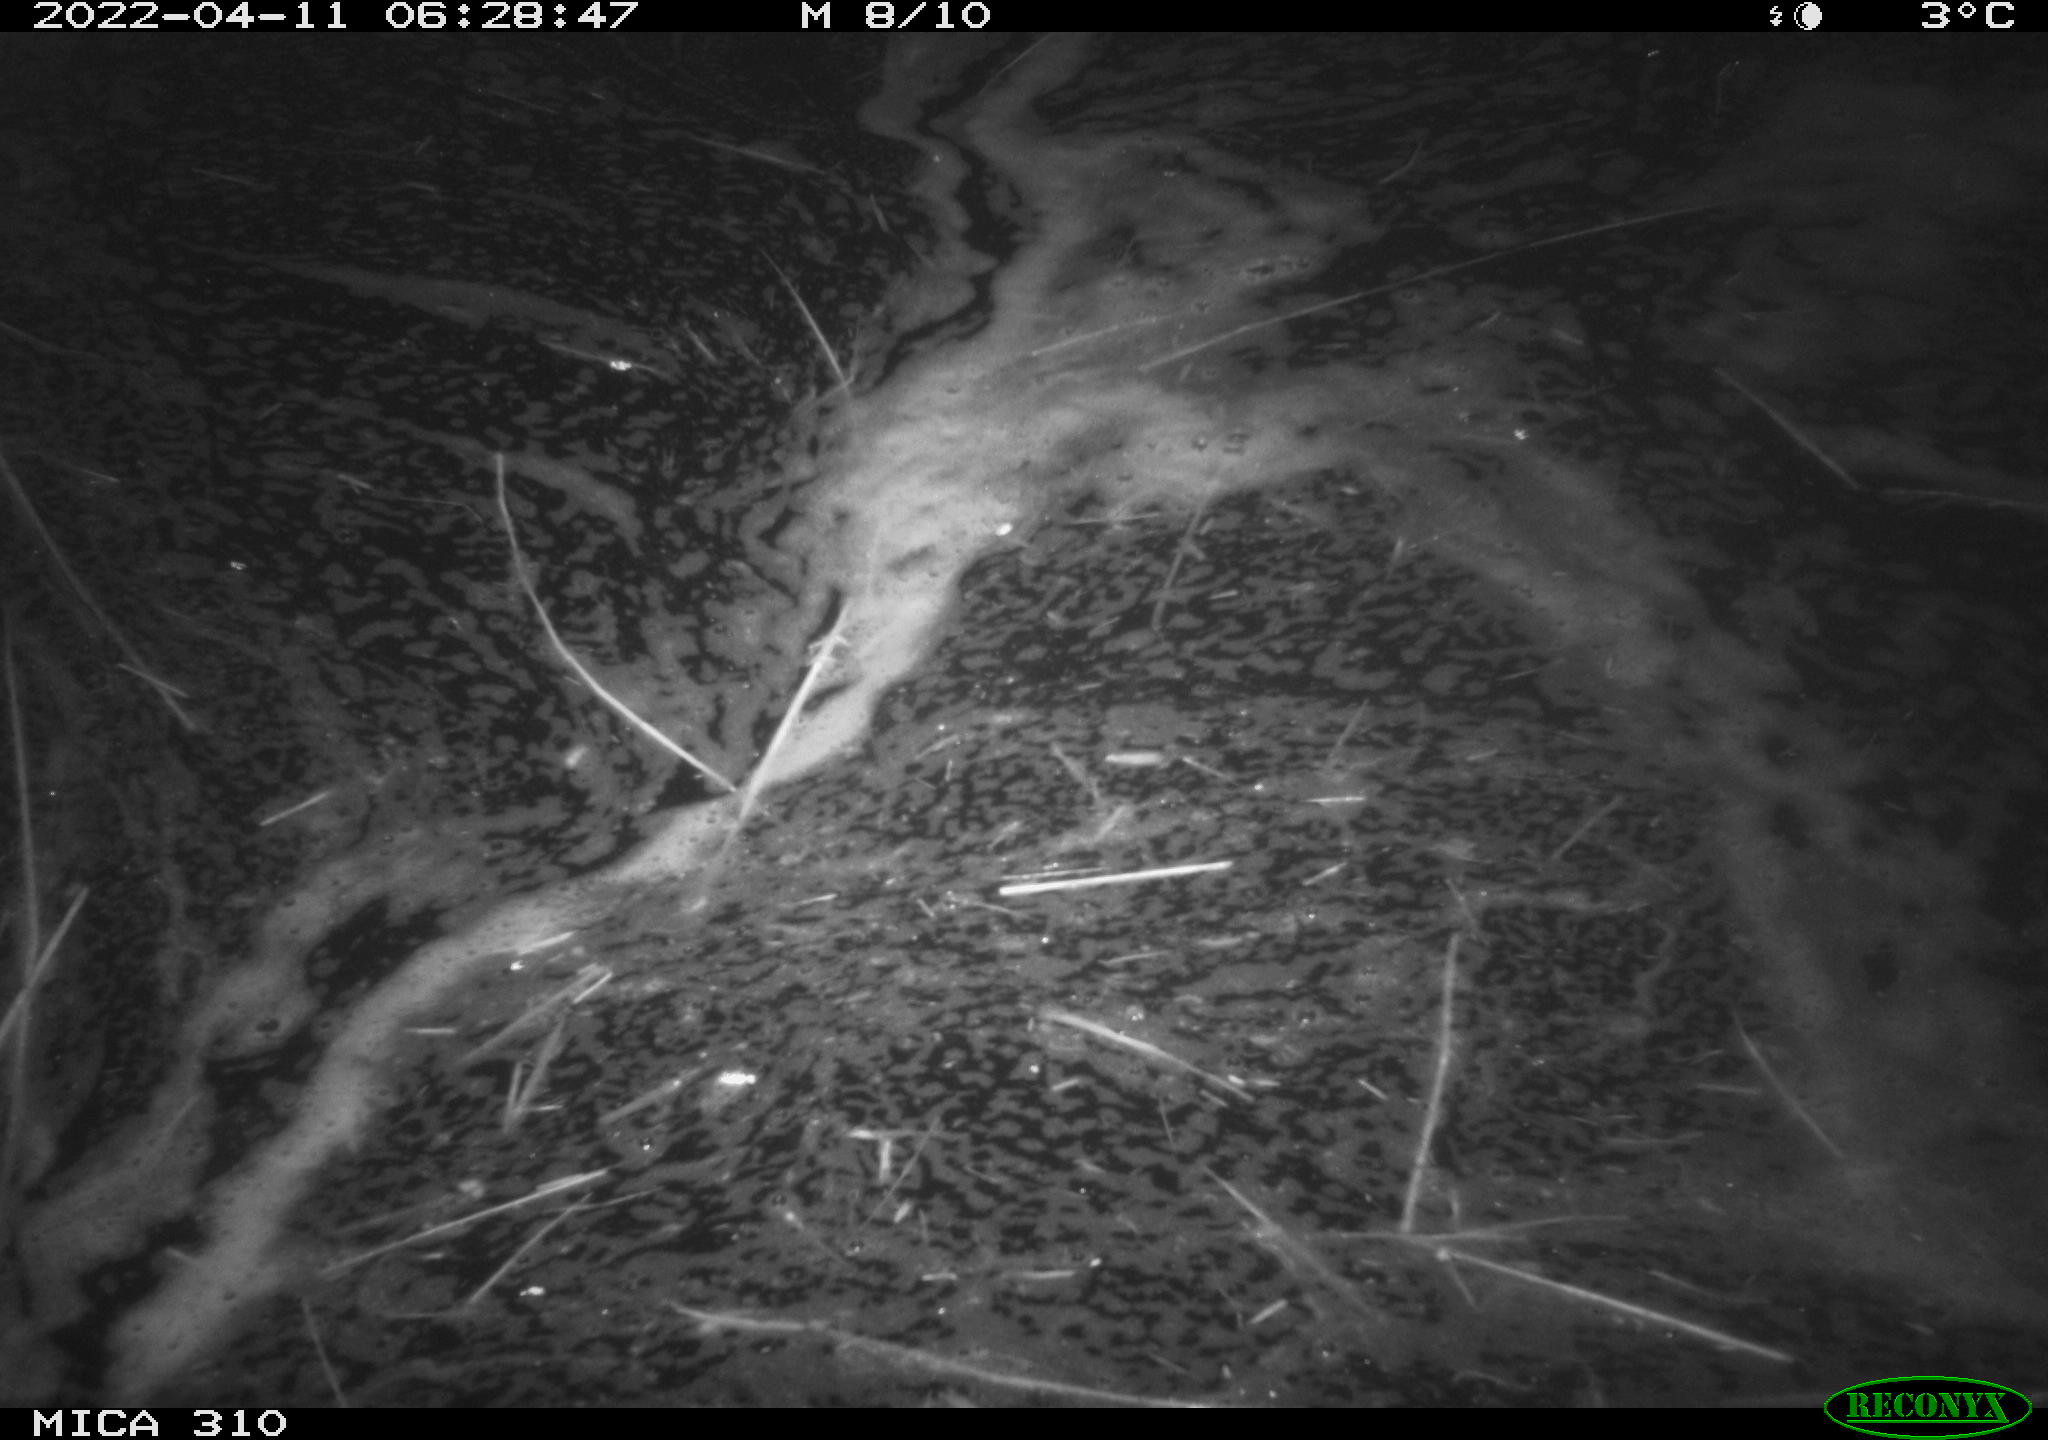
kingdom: Animalia
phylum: Chordata
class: Aves
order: Anseriformes
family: Anatidae
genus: Anas
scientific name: Anas platyrhynchos
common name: Mallard
